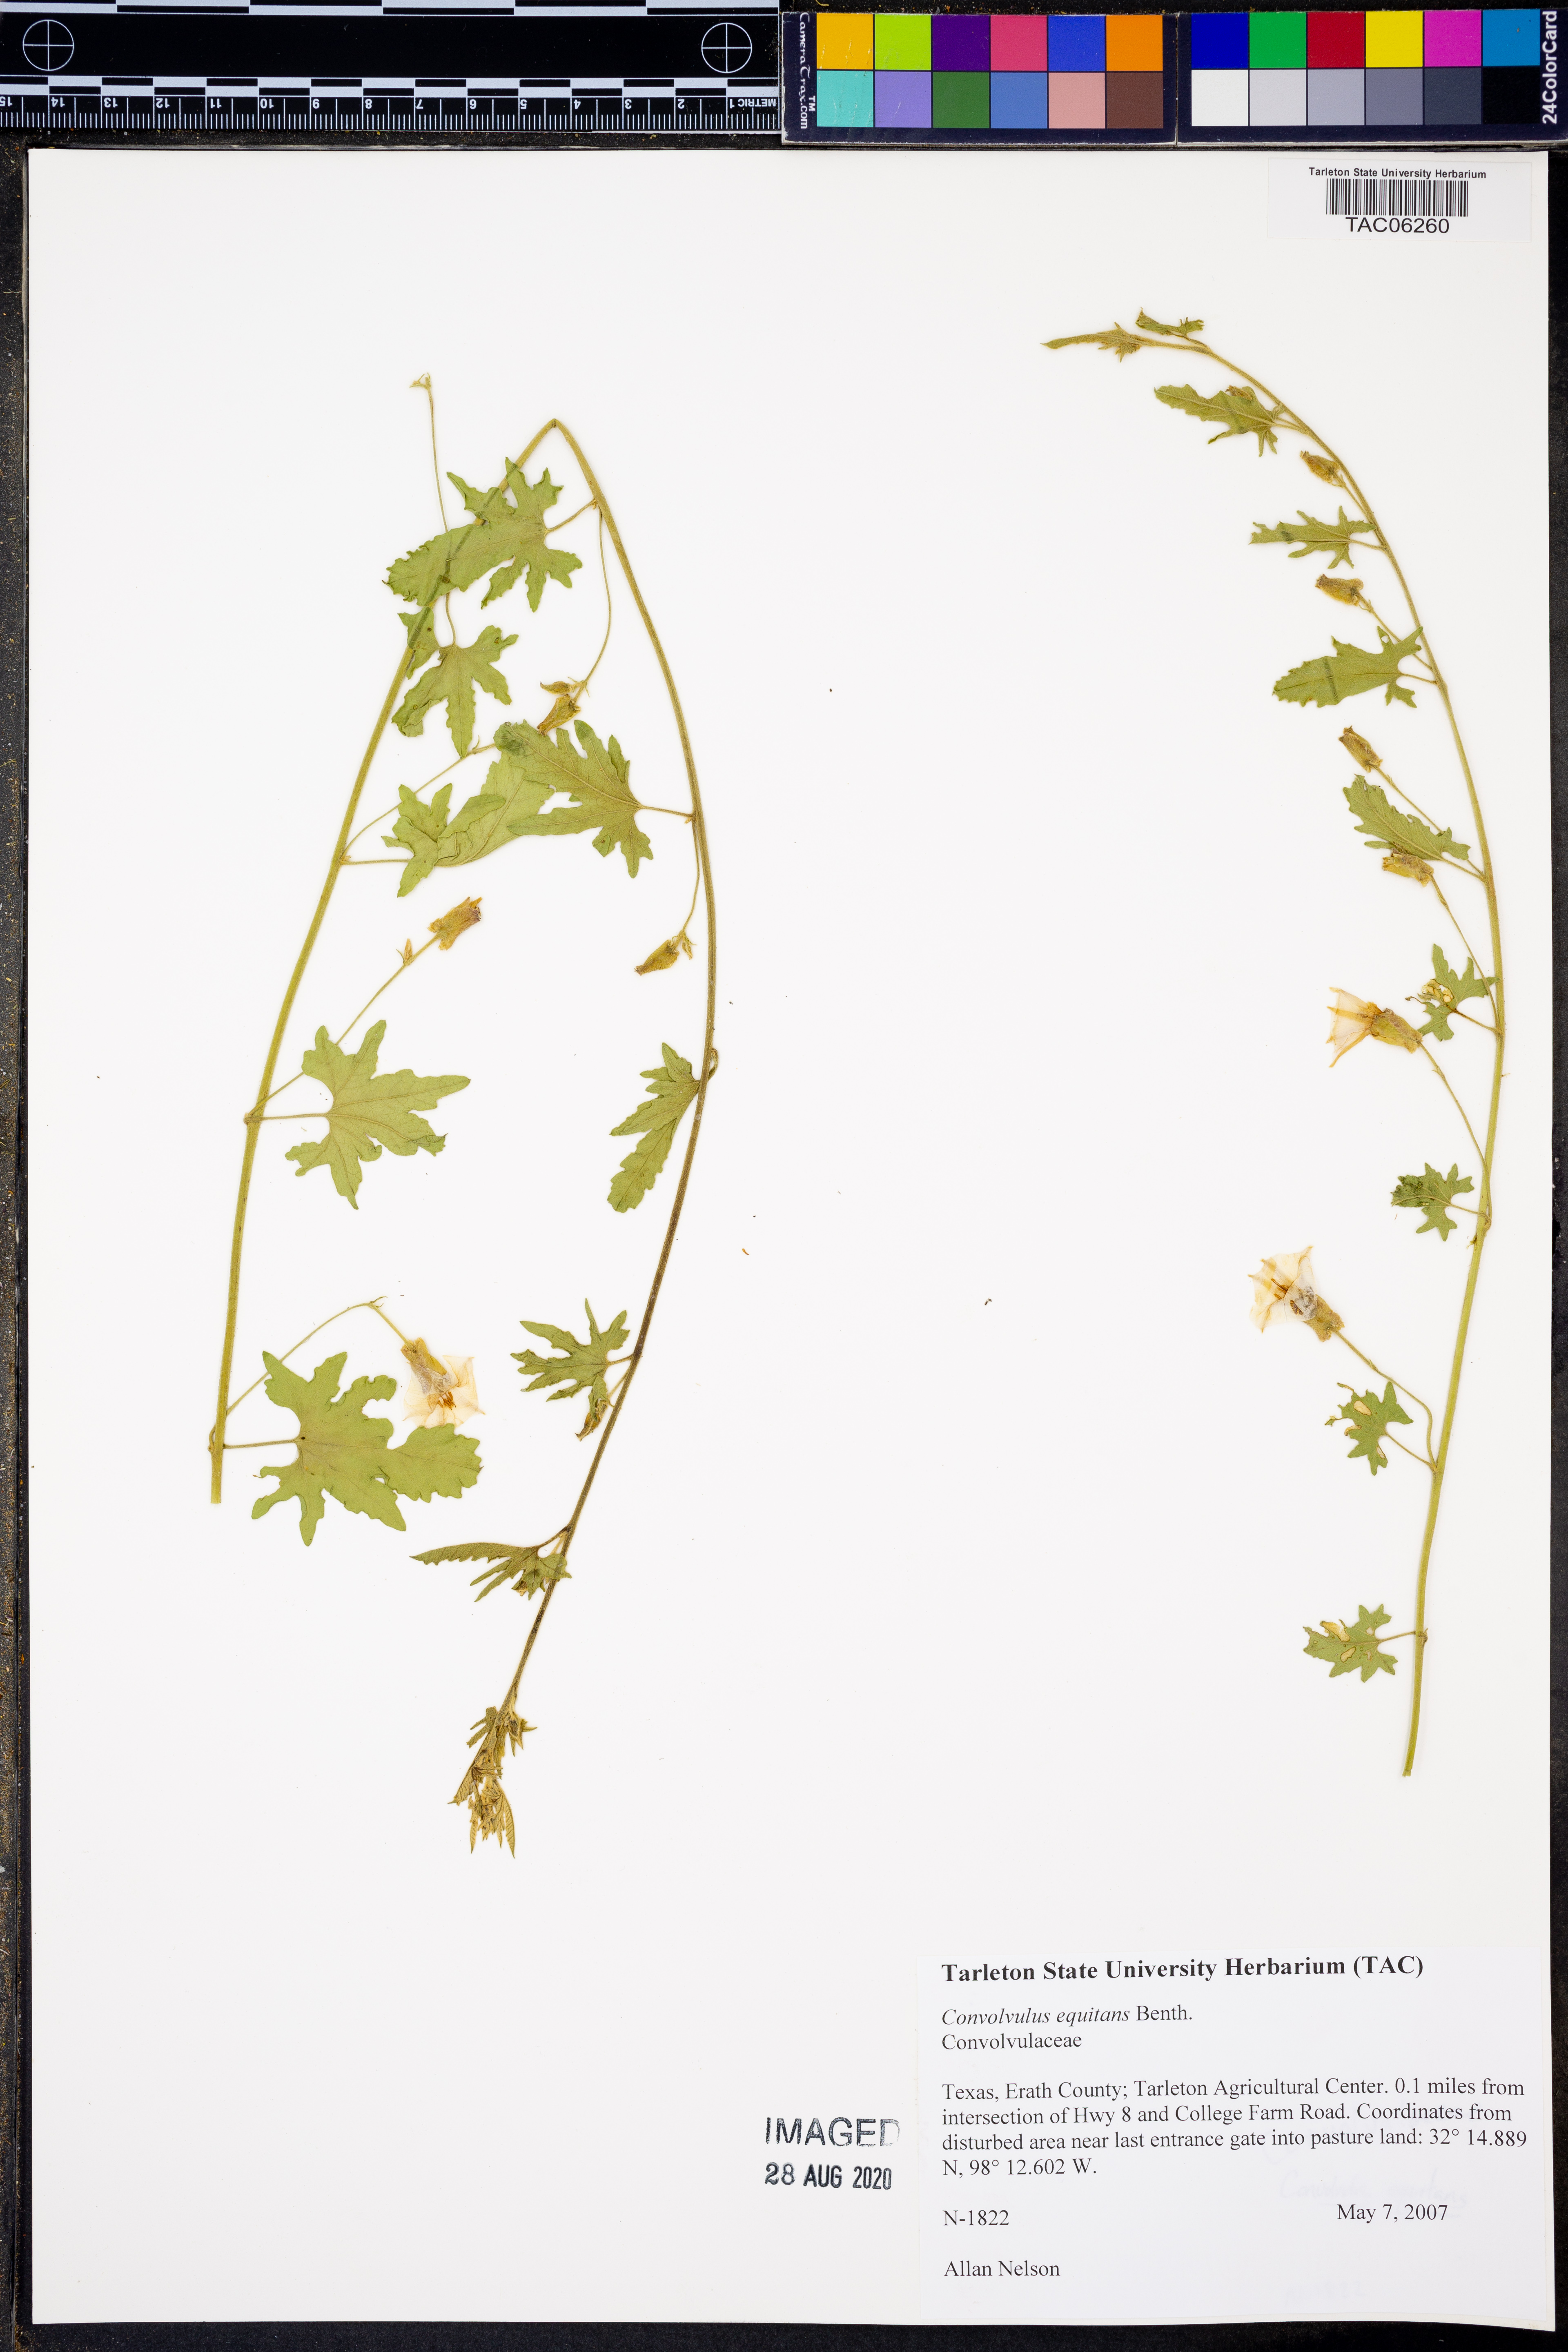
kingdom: Plantae
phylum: Tracheophyta
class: Magnoliopsida
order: Solanales
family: Convolvulaceae
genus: Convolvulus
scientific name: Convolvulus equitans
